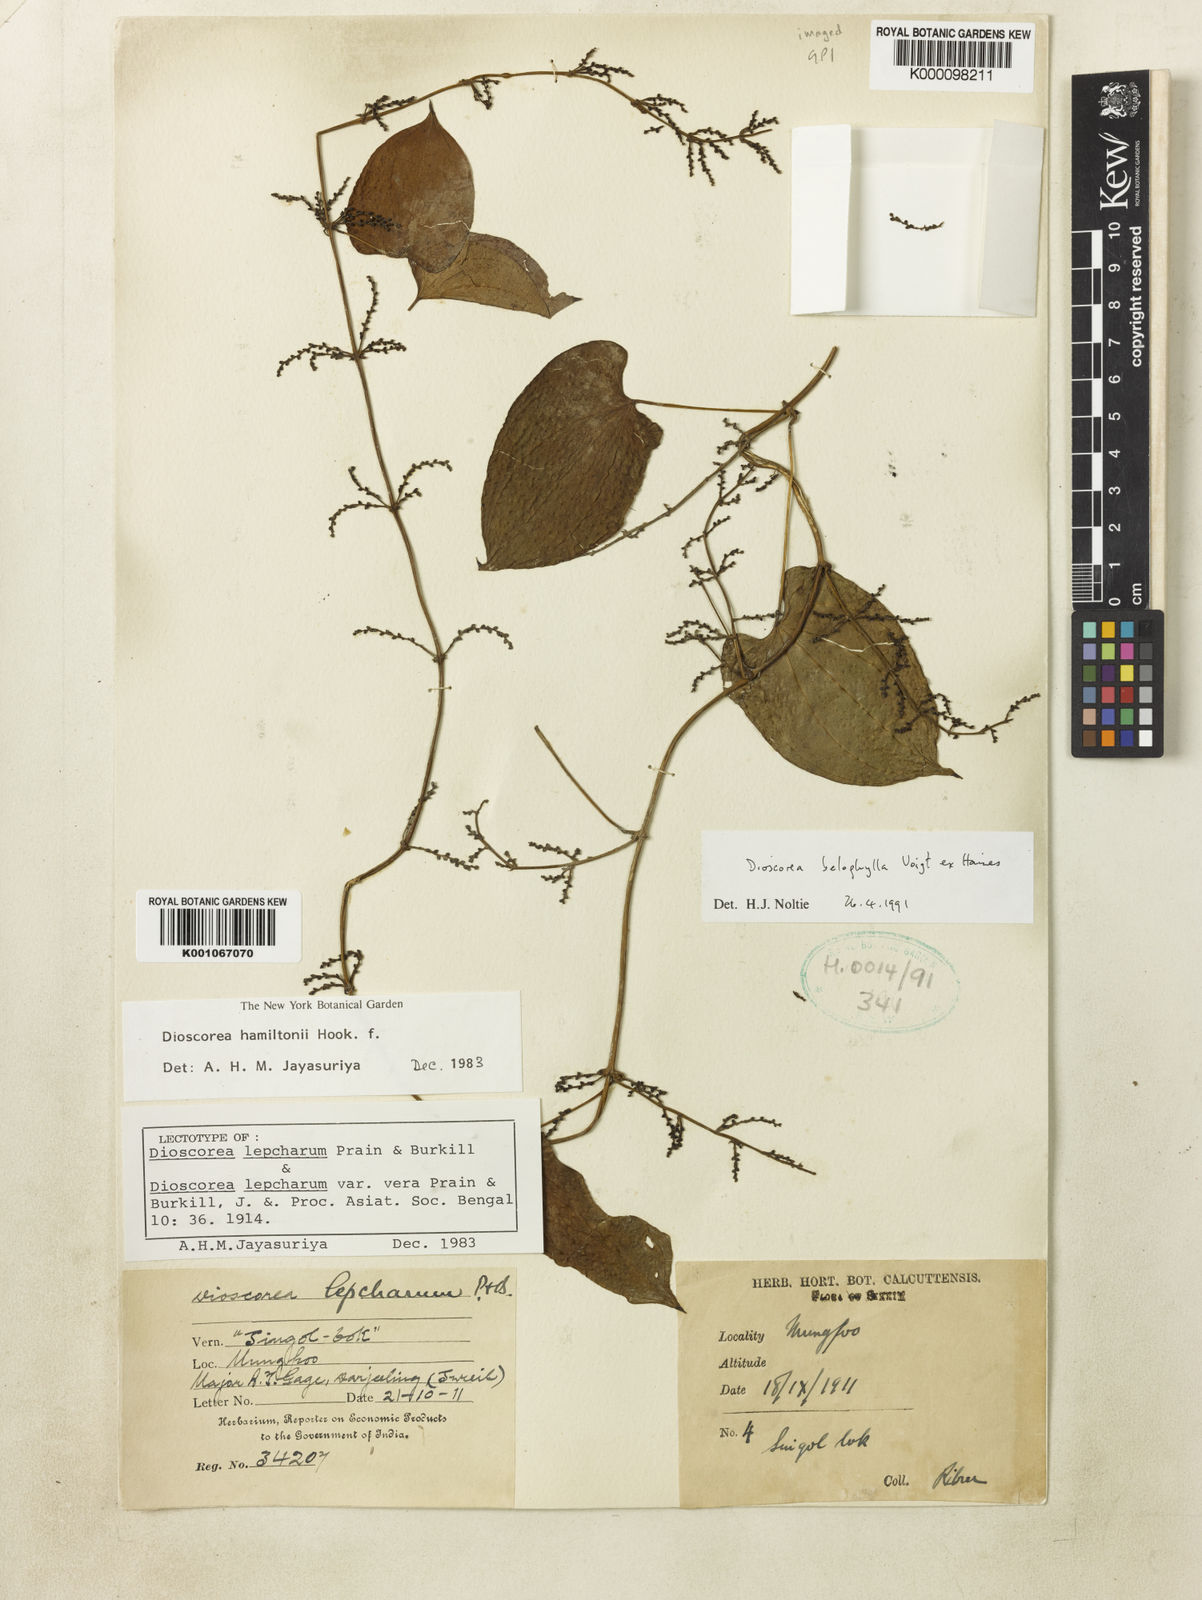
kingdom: Plantae
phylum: Tracheophyta
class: Liliopsida
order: Dioscoreales
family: Dioscoreaceae
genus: Dioscorea
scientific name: Dioscorea lepcharum
